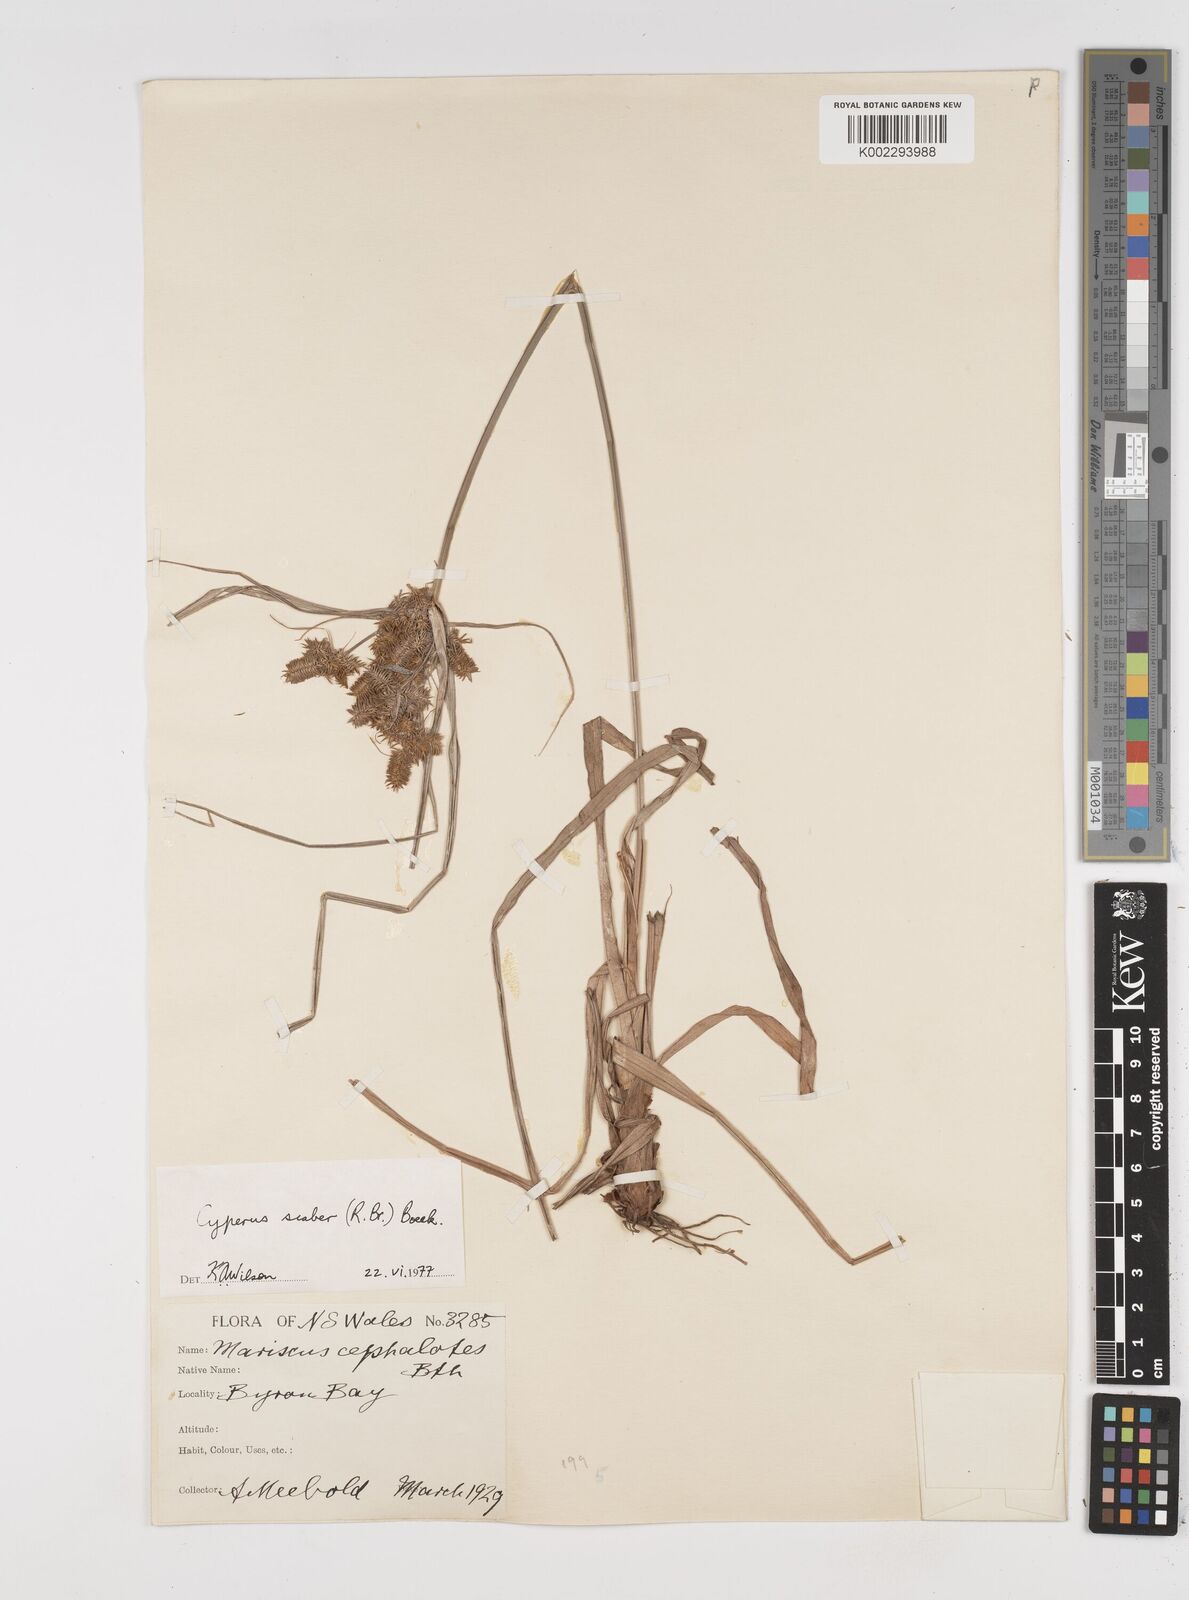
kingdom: Plantae
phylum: Tracheophyta
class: Liliopsida
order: Poales
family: Cyperaceae
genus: Cyperus
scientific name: Cyperus scaber
